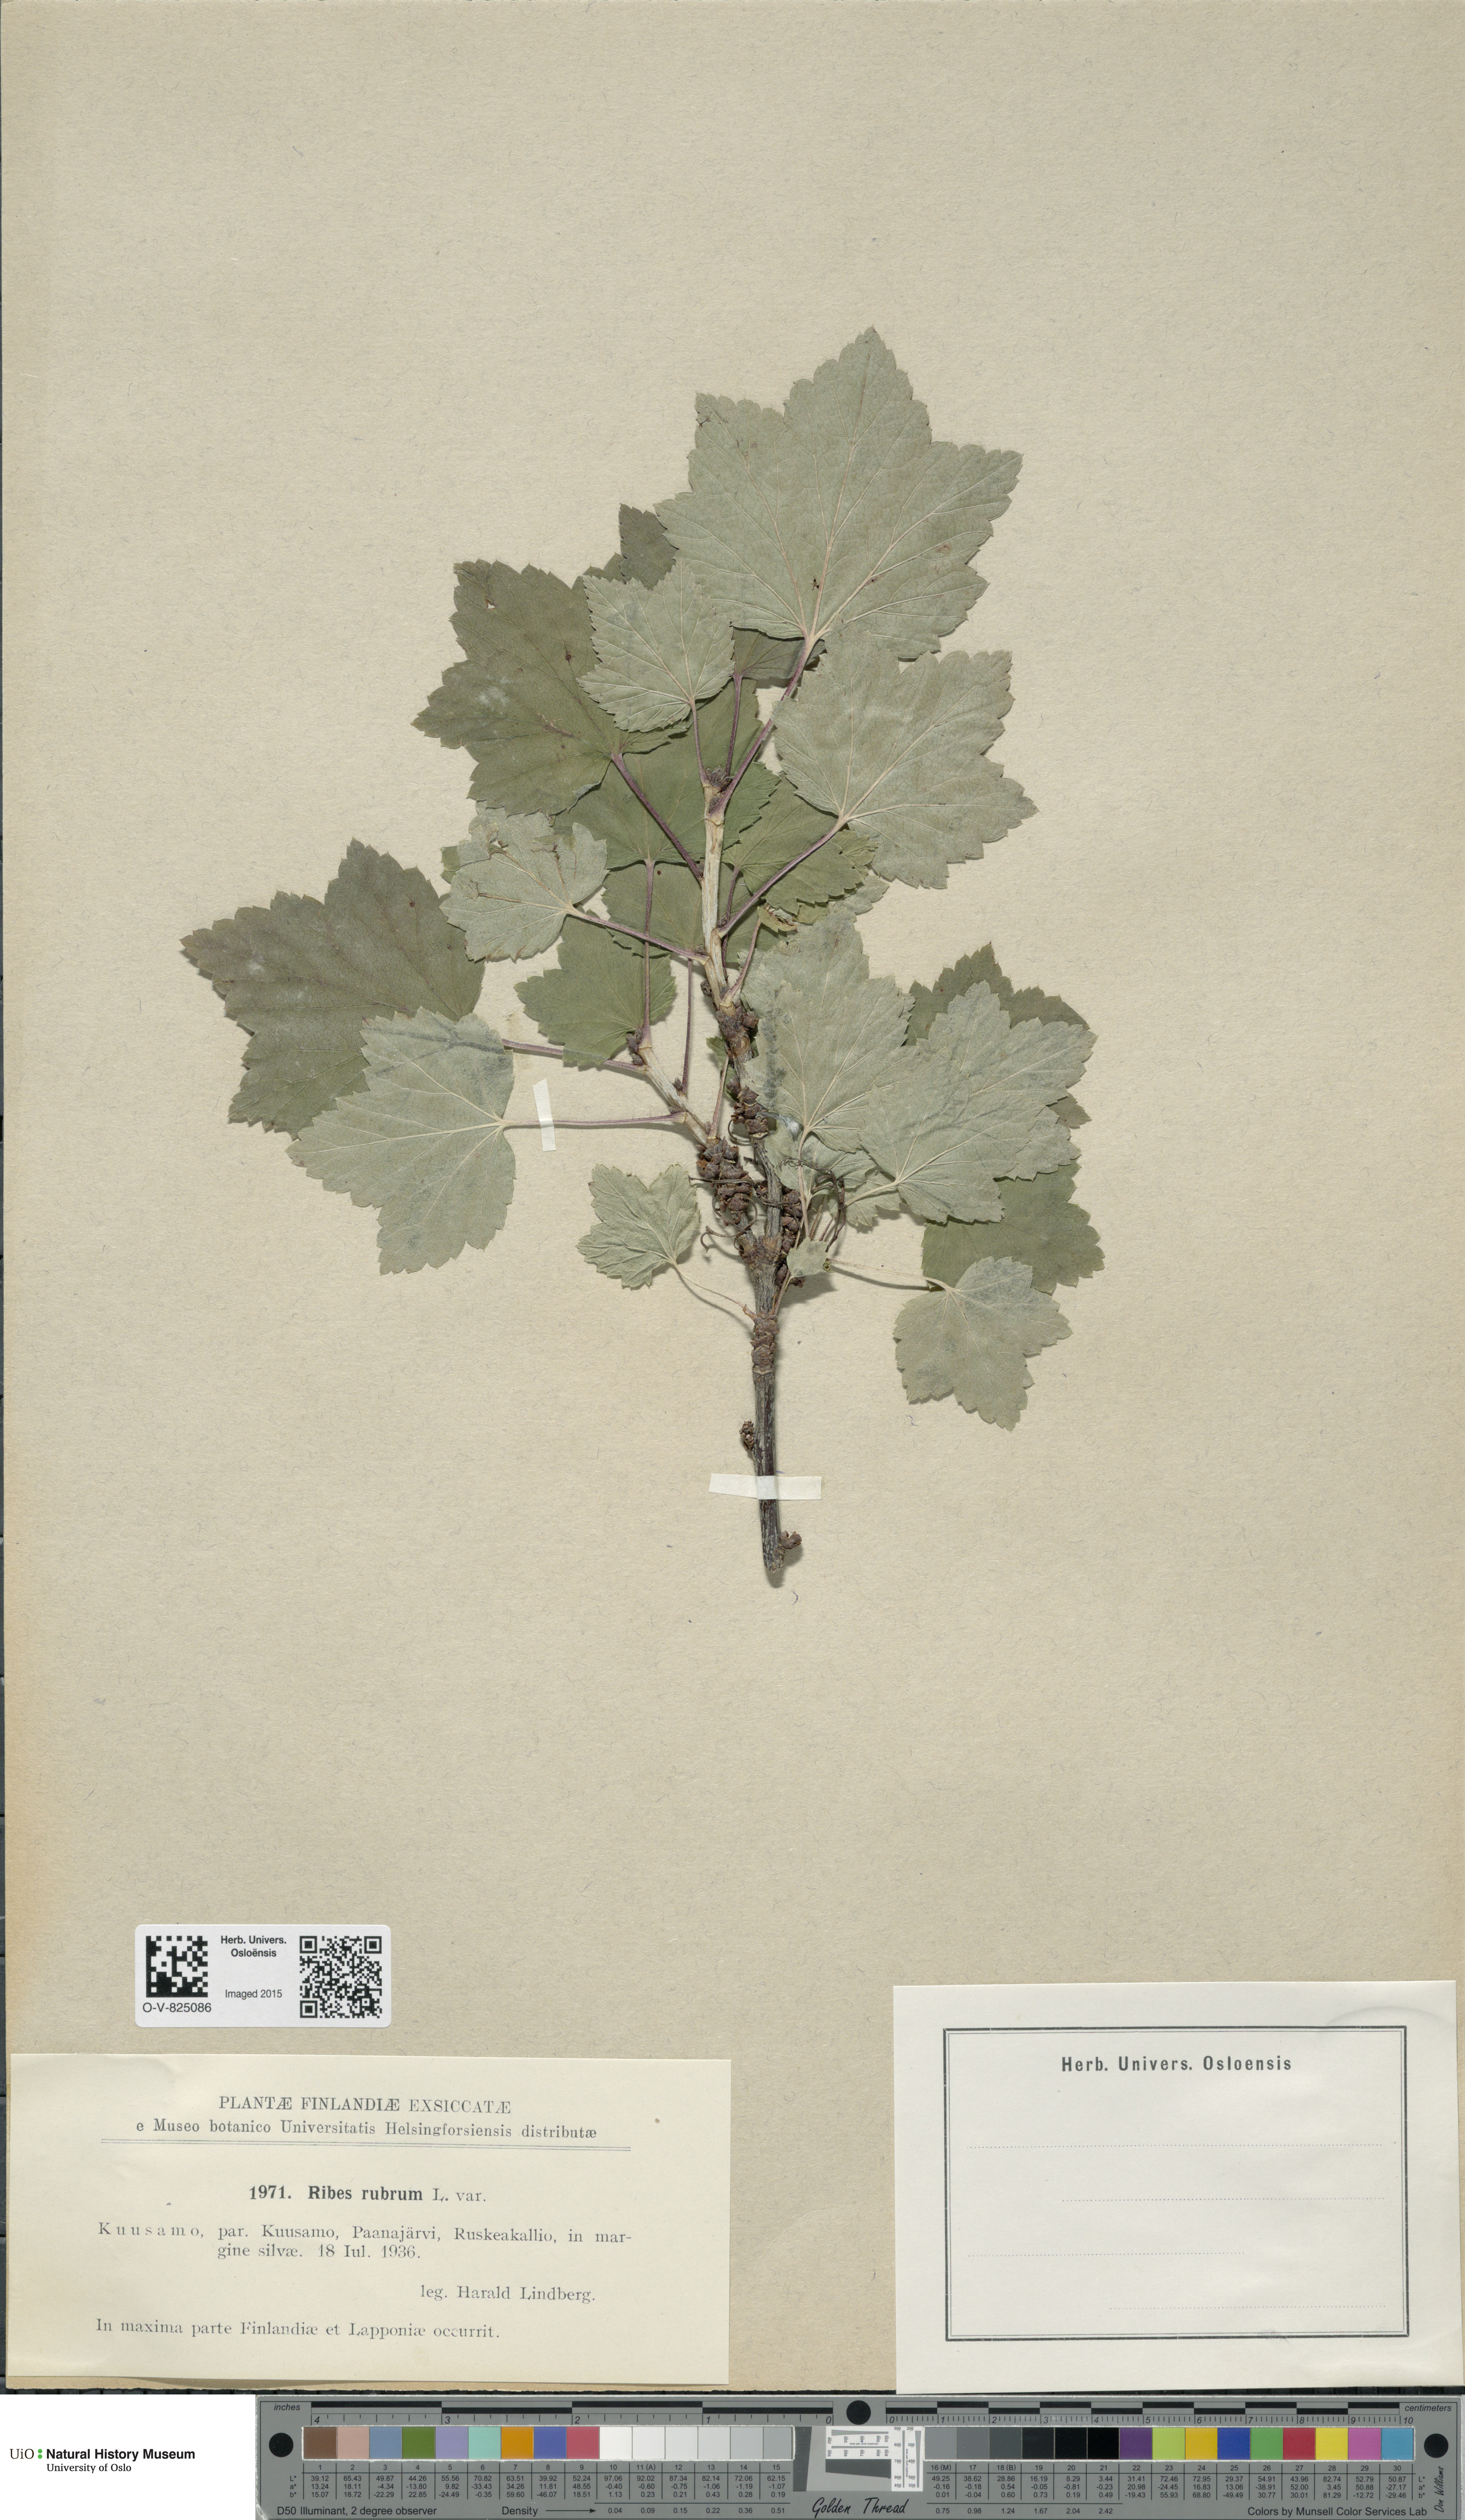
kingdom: Plantae
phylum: Tracheophyta
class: Magnoliopsida
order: Saxifragales
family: Grossulariaceae
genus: Ribes
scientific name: Ribes spicatum
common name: Downy currant
